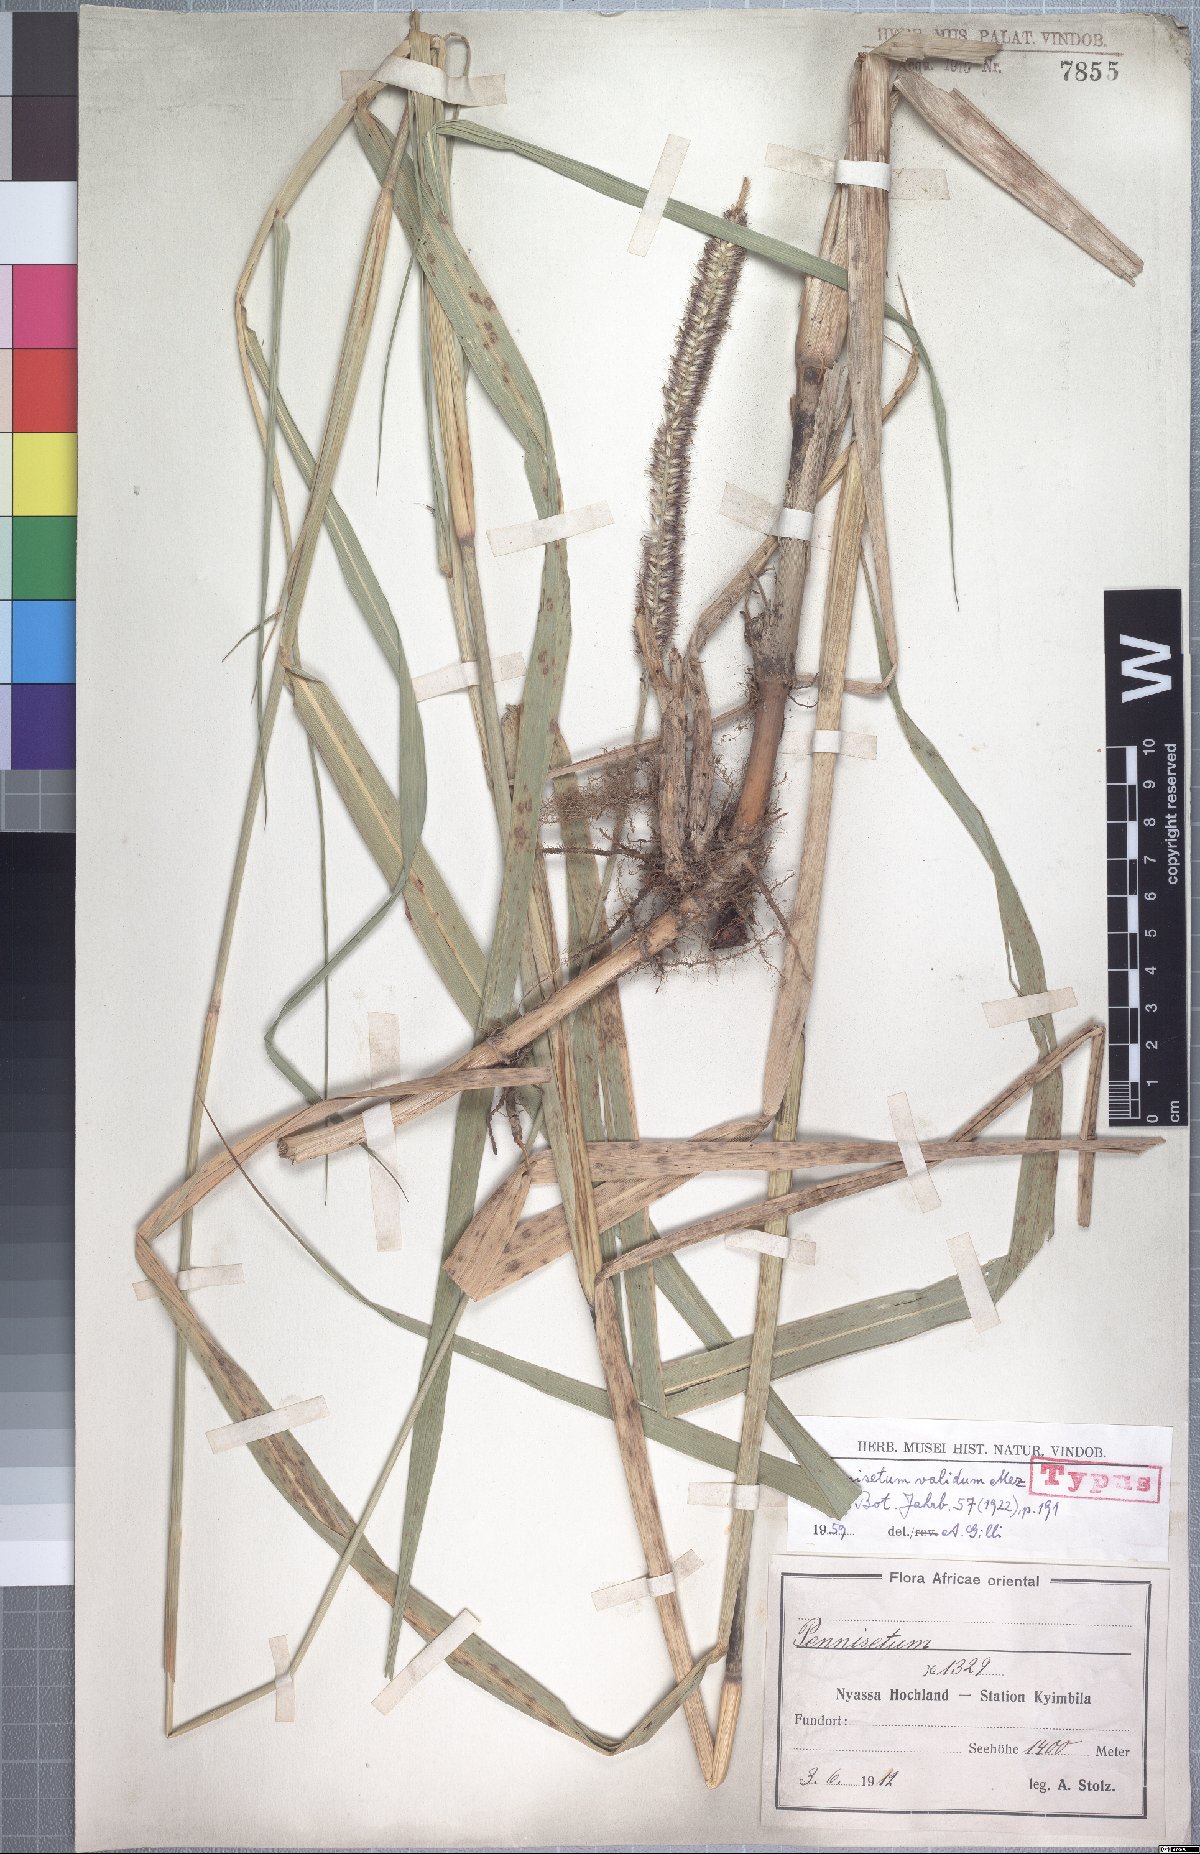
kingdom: Plantae
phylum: Tracheophyta
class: Liliopsida
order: Poales
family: Poaceae
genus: Cenchrus
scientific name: Cenchrus caudatus
